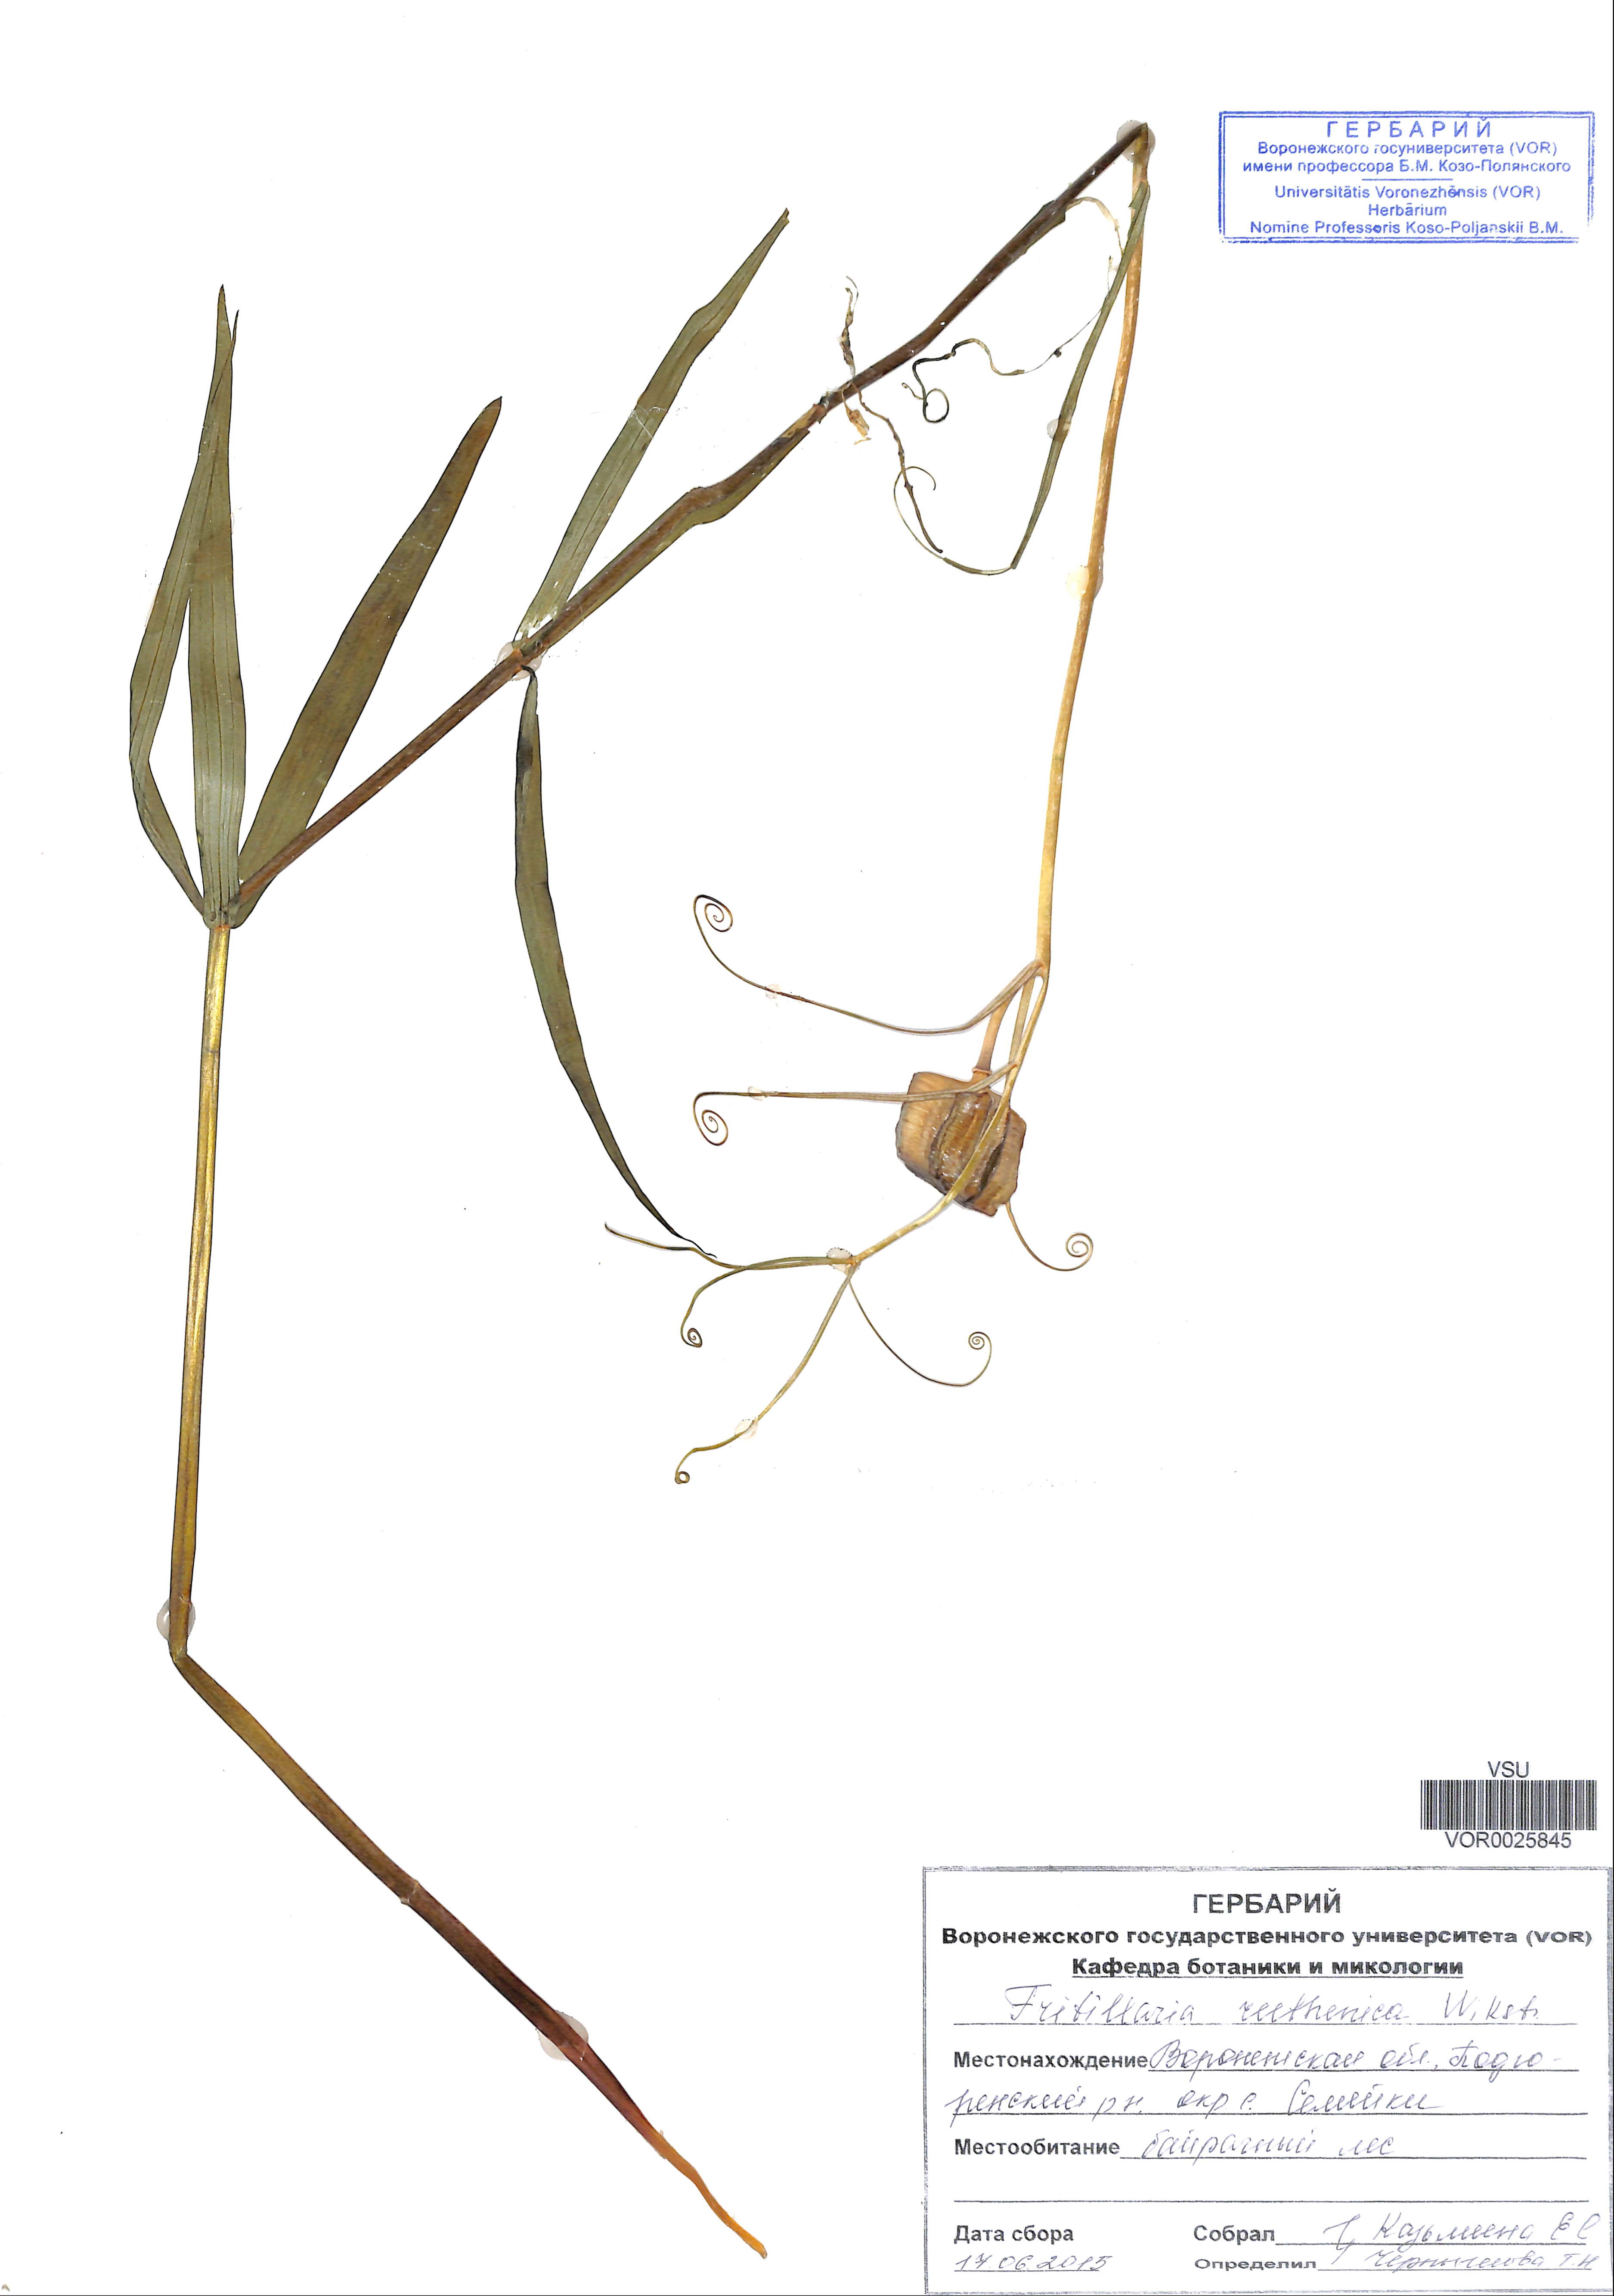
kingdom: Plantae
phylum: Tracheophyta
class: Liliopsida
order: Liliales
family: Liliaceae
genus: Fritillaria
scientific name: Fritillaria ruthenica
